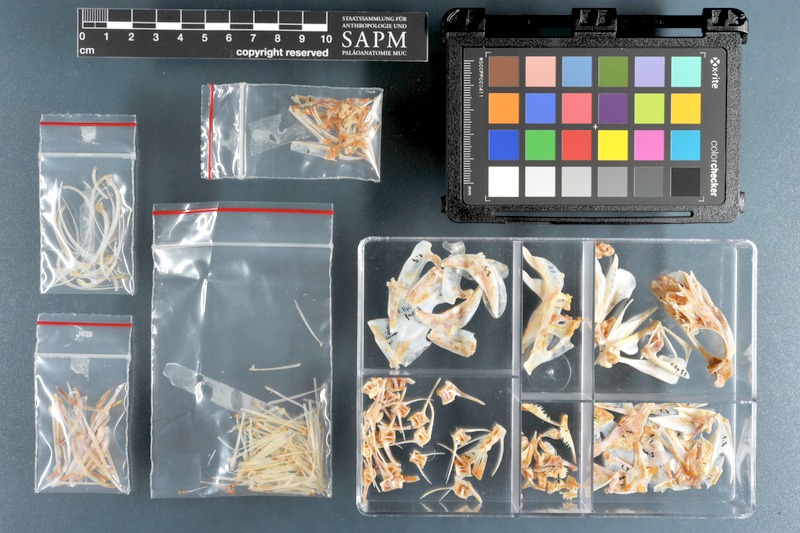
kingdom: Animalia
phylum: Chordata
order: Perciformes
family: Serranidae
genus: Epinephelus
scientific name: Epinephelus fasciatus
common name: Blacktip grouper
